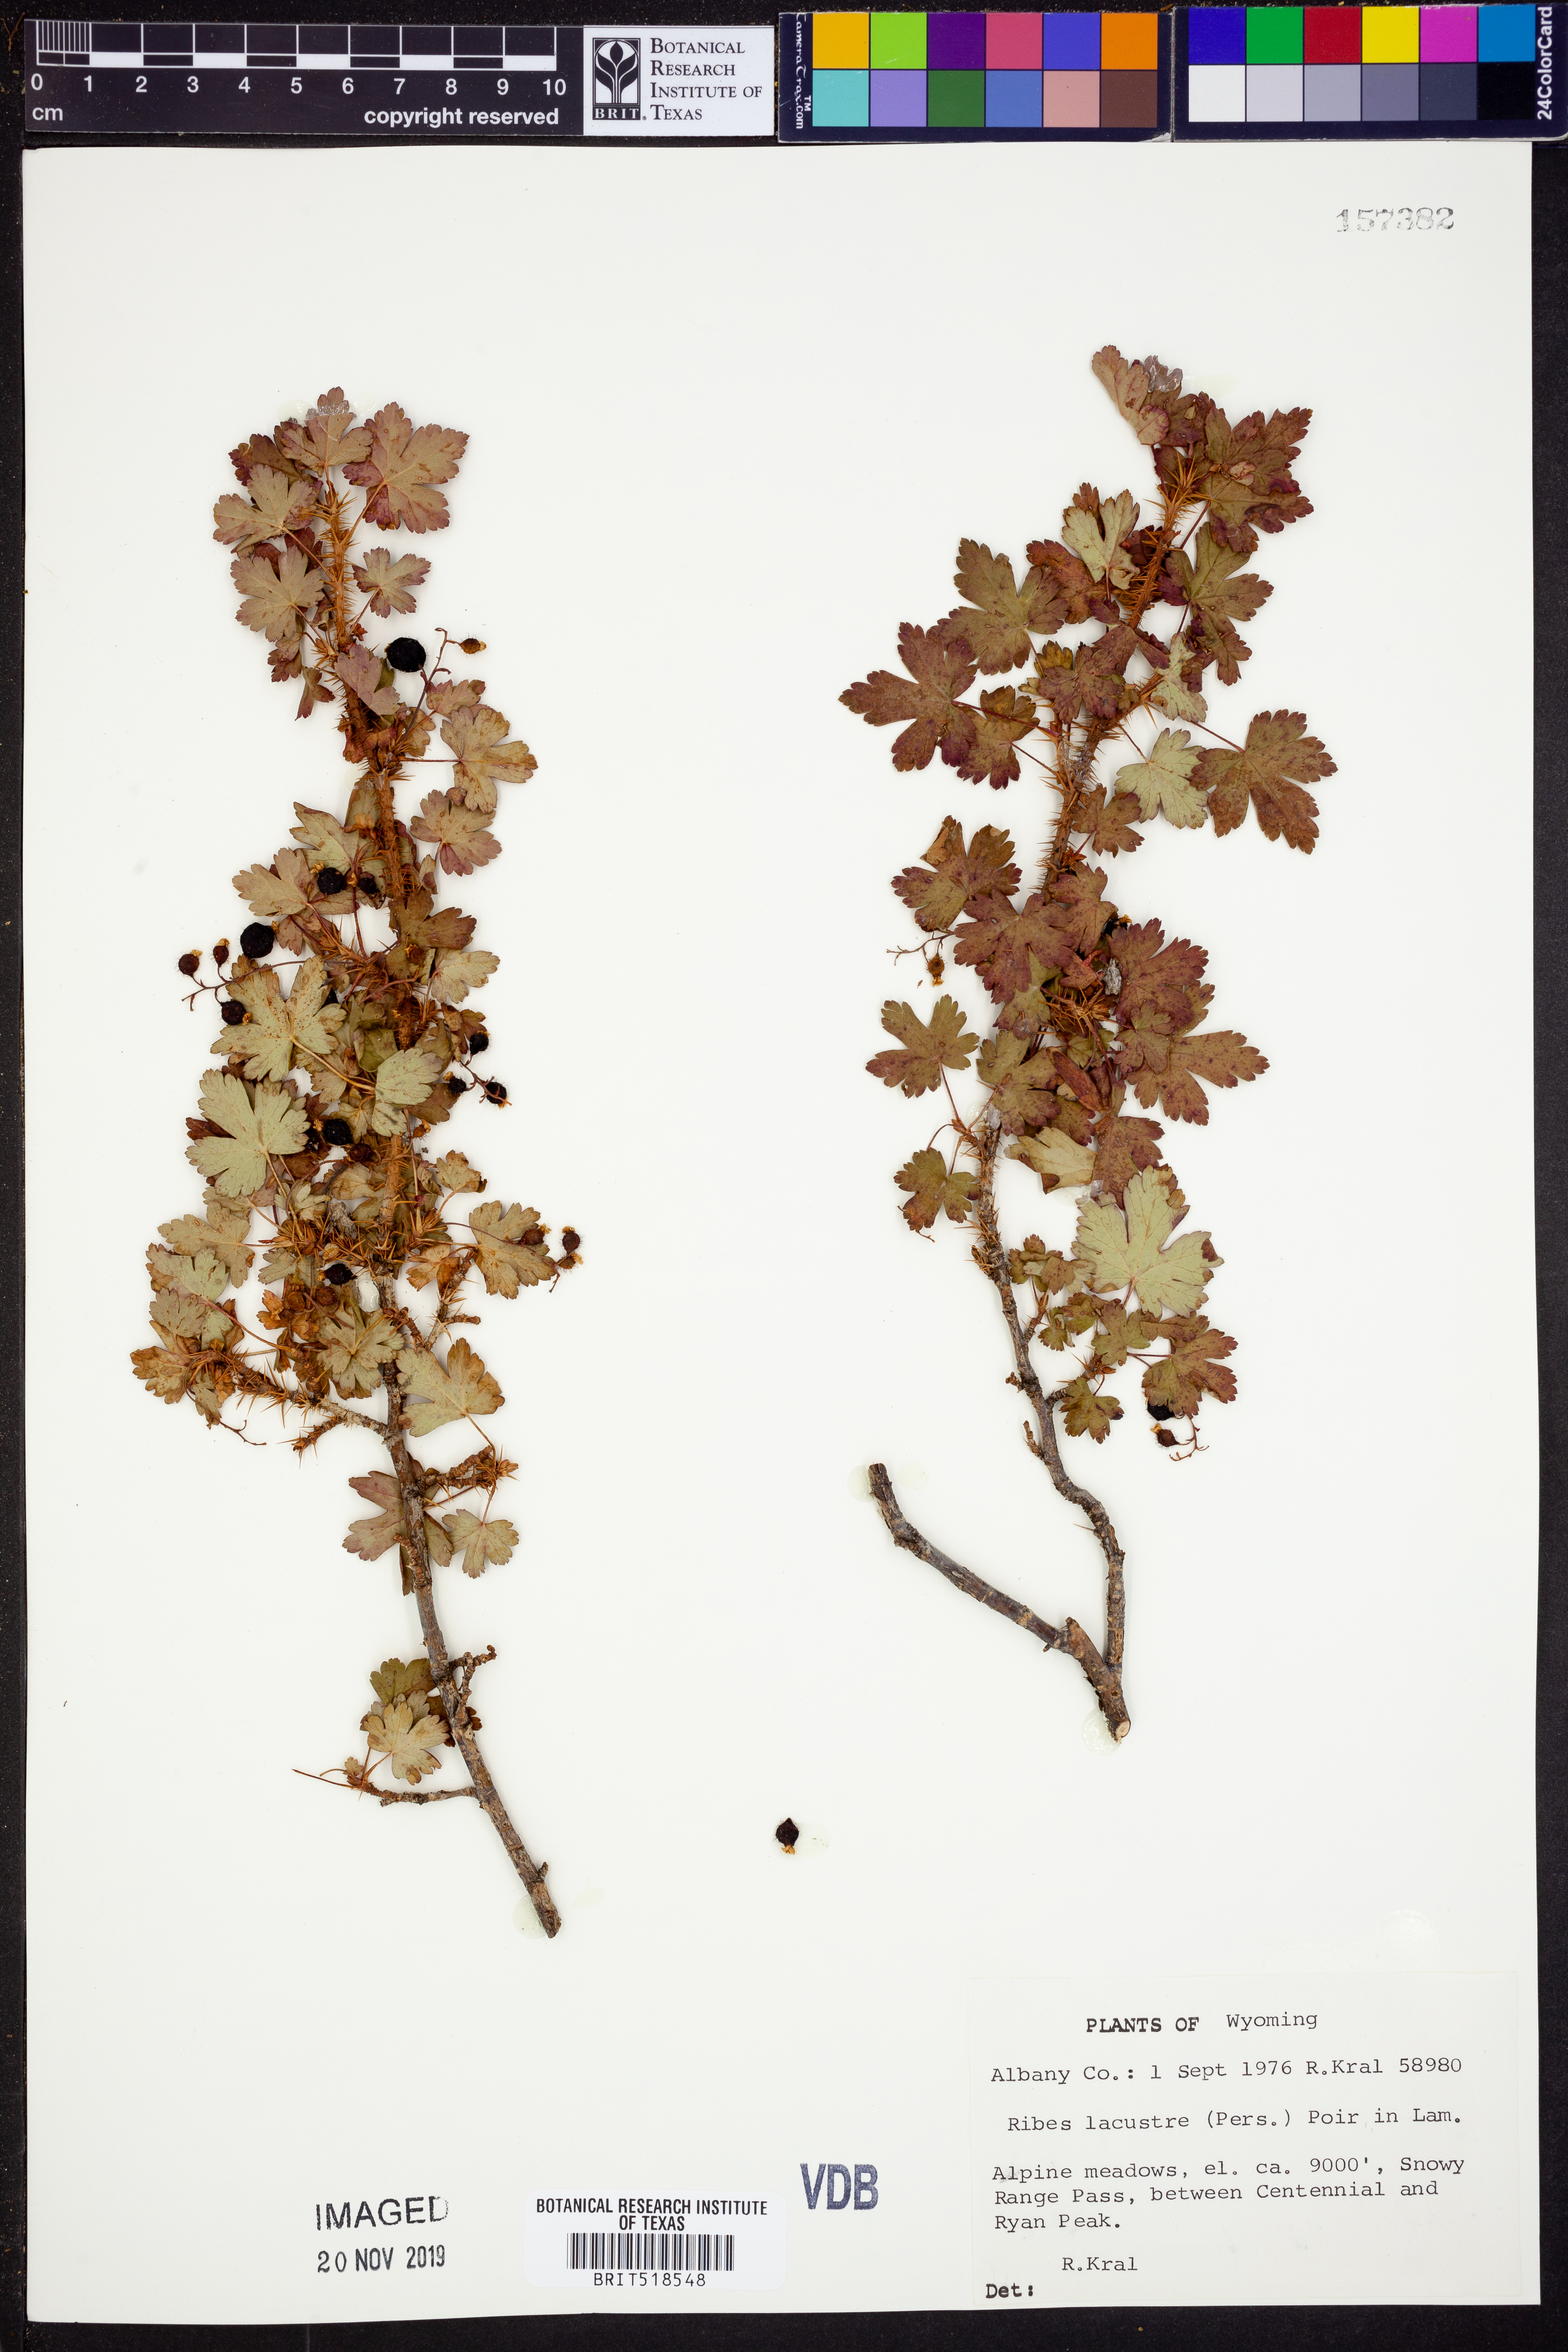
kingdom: Plantae
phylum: Tracheophyta
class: Magnoliopsida
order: Saxifragales
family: Grossulariaceae
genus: Ribes
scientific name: Ribes lacustre
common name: Black gooseberry
